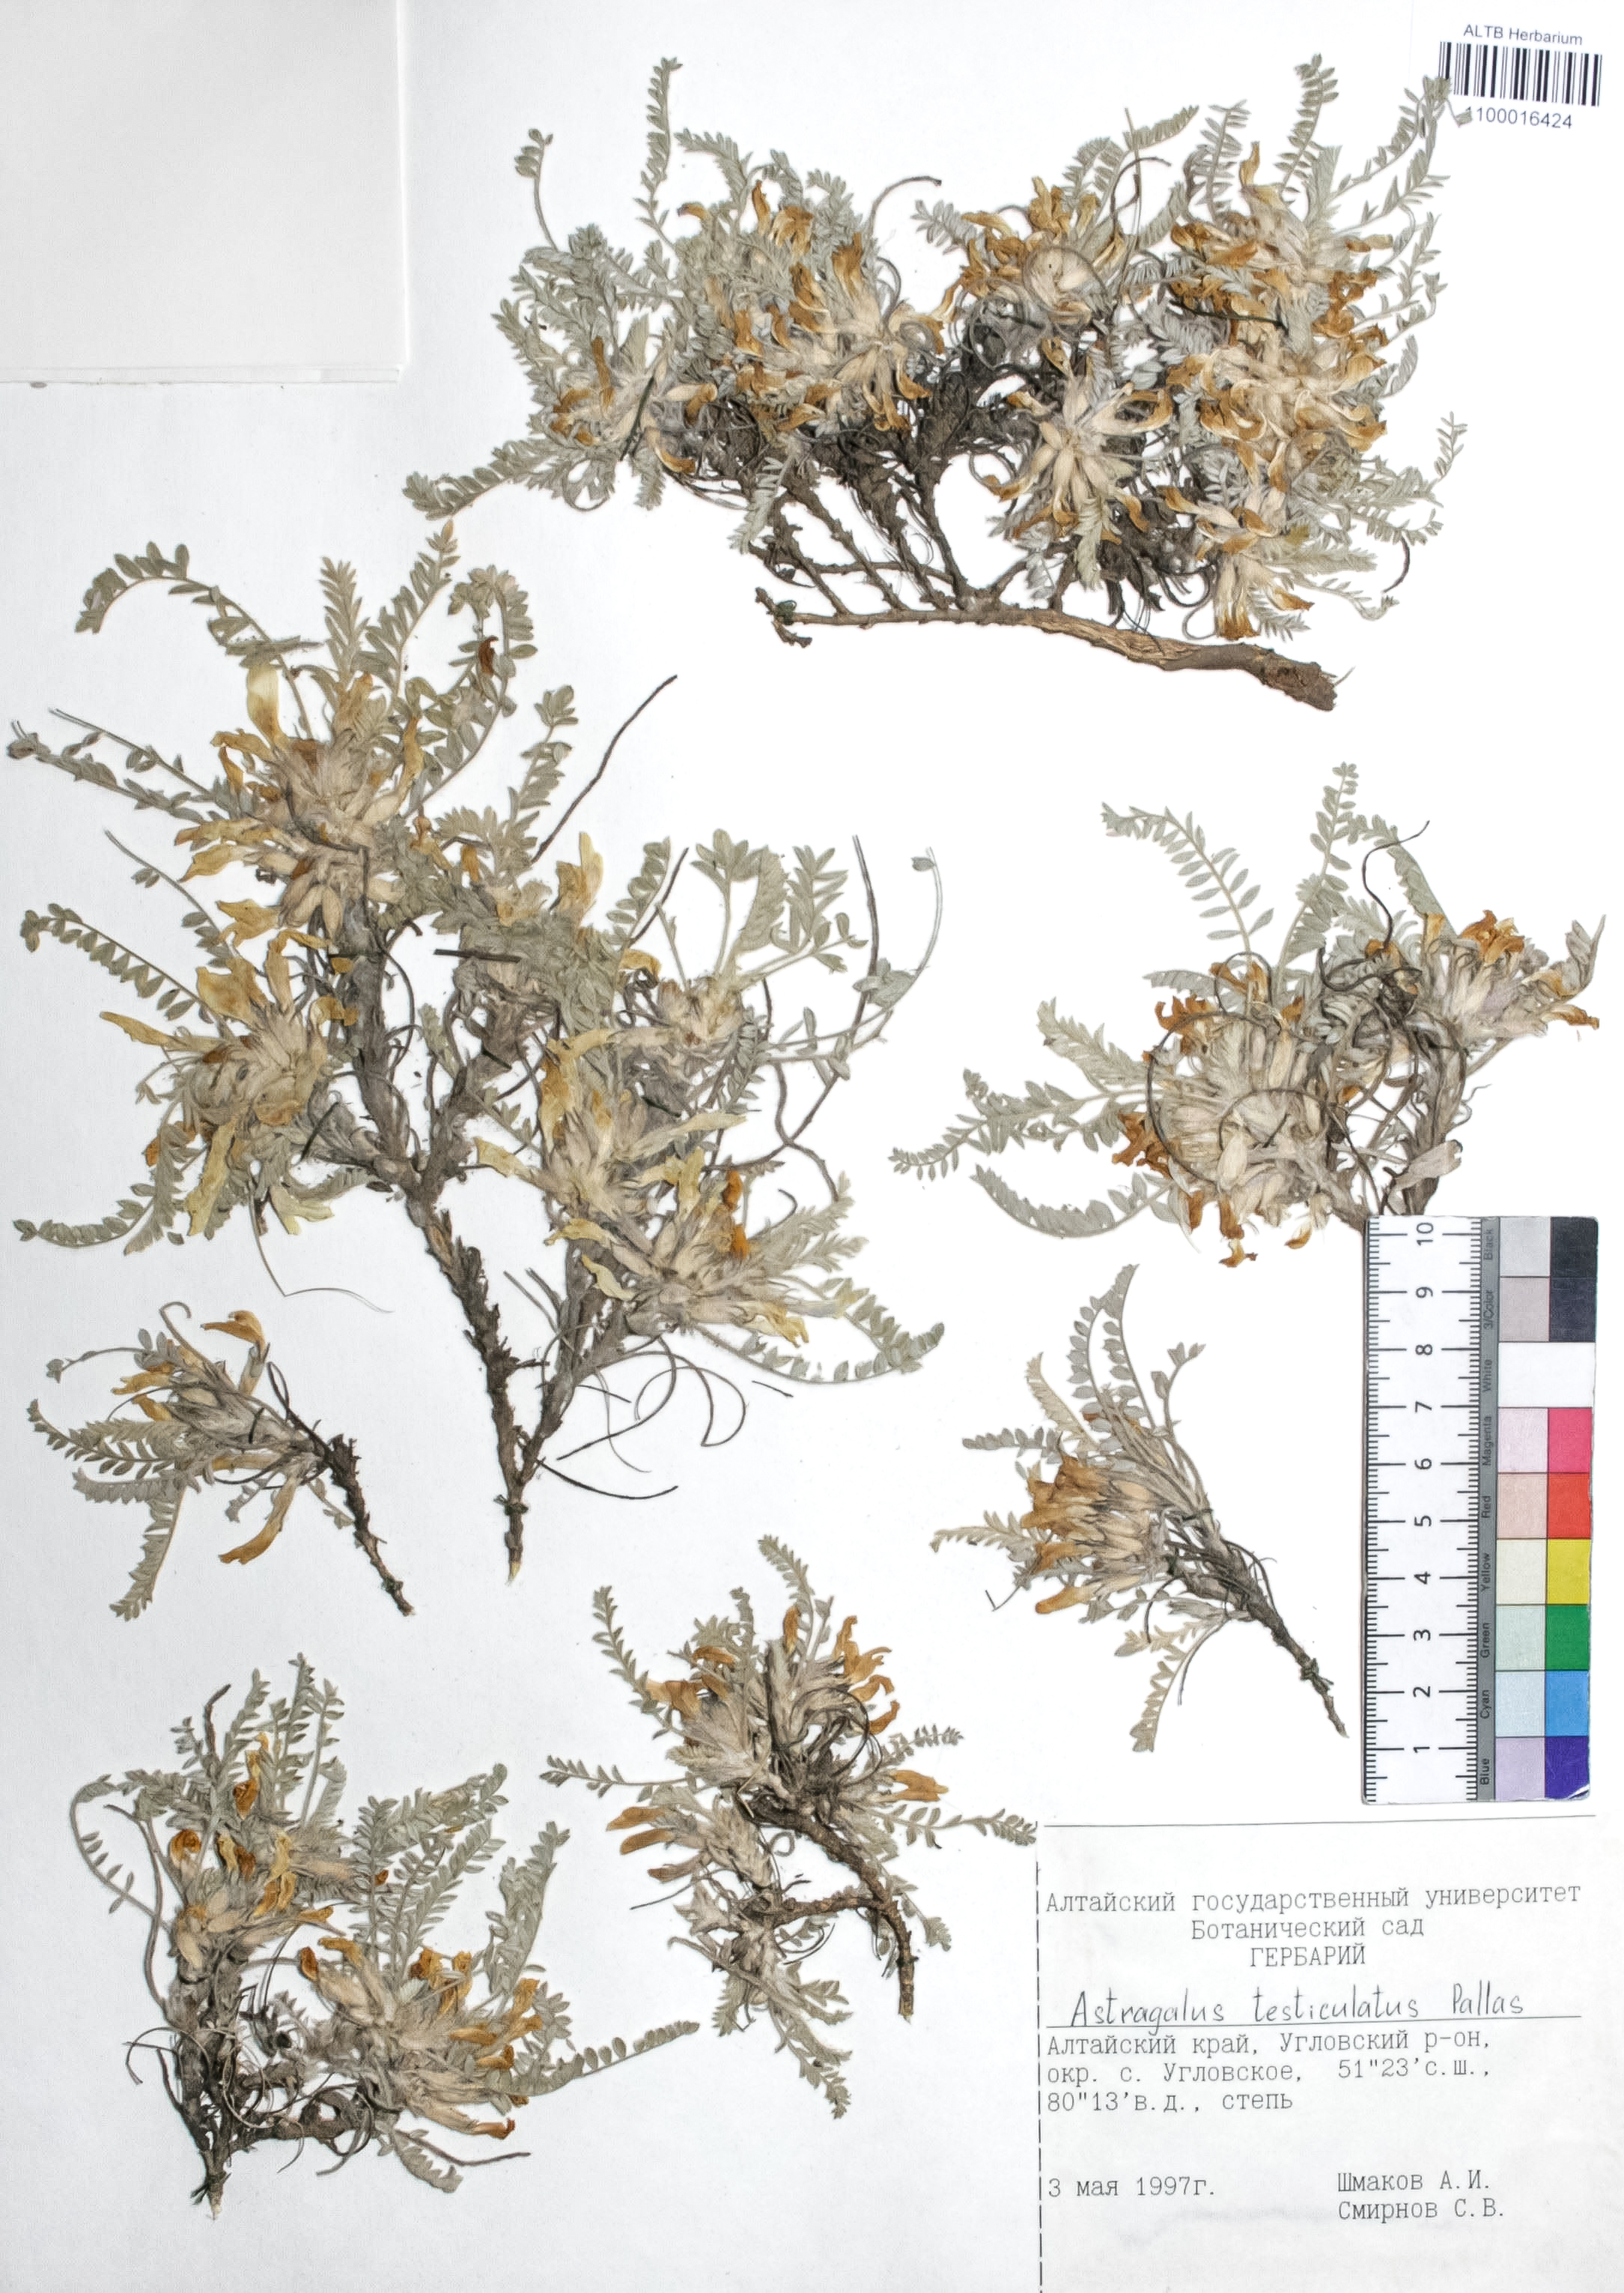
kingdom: Plantae
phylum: Tracheophyta
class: Magnoliopsida
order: Fabales
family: Fabaceae
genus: Astragalus
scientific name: Astragalus testiculatus
